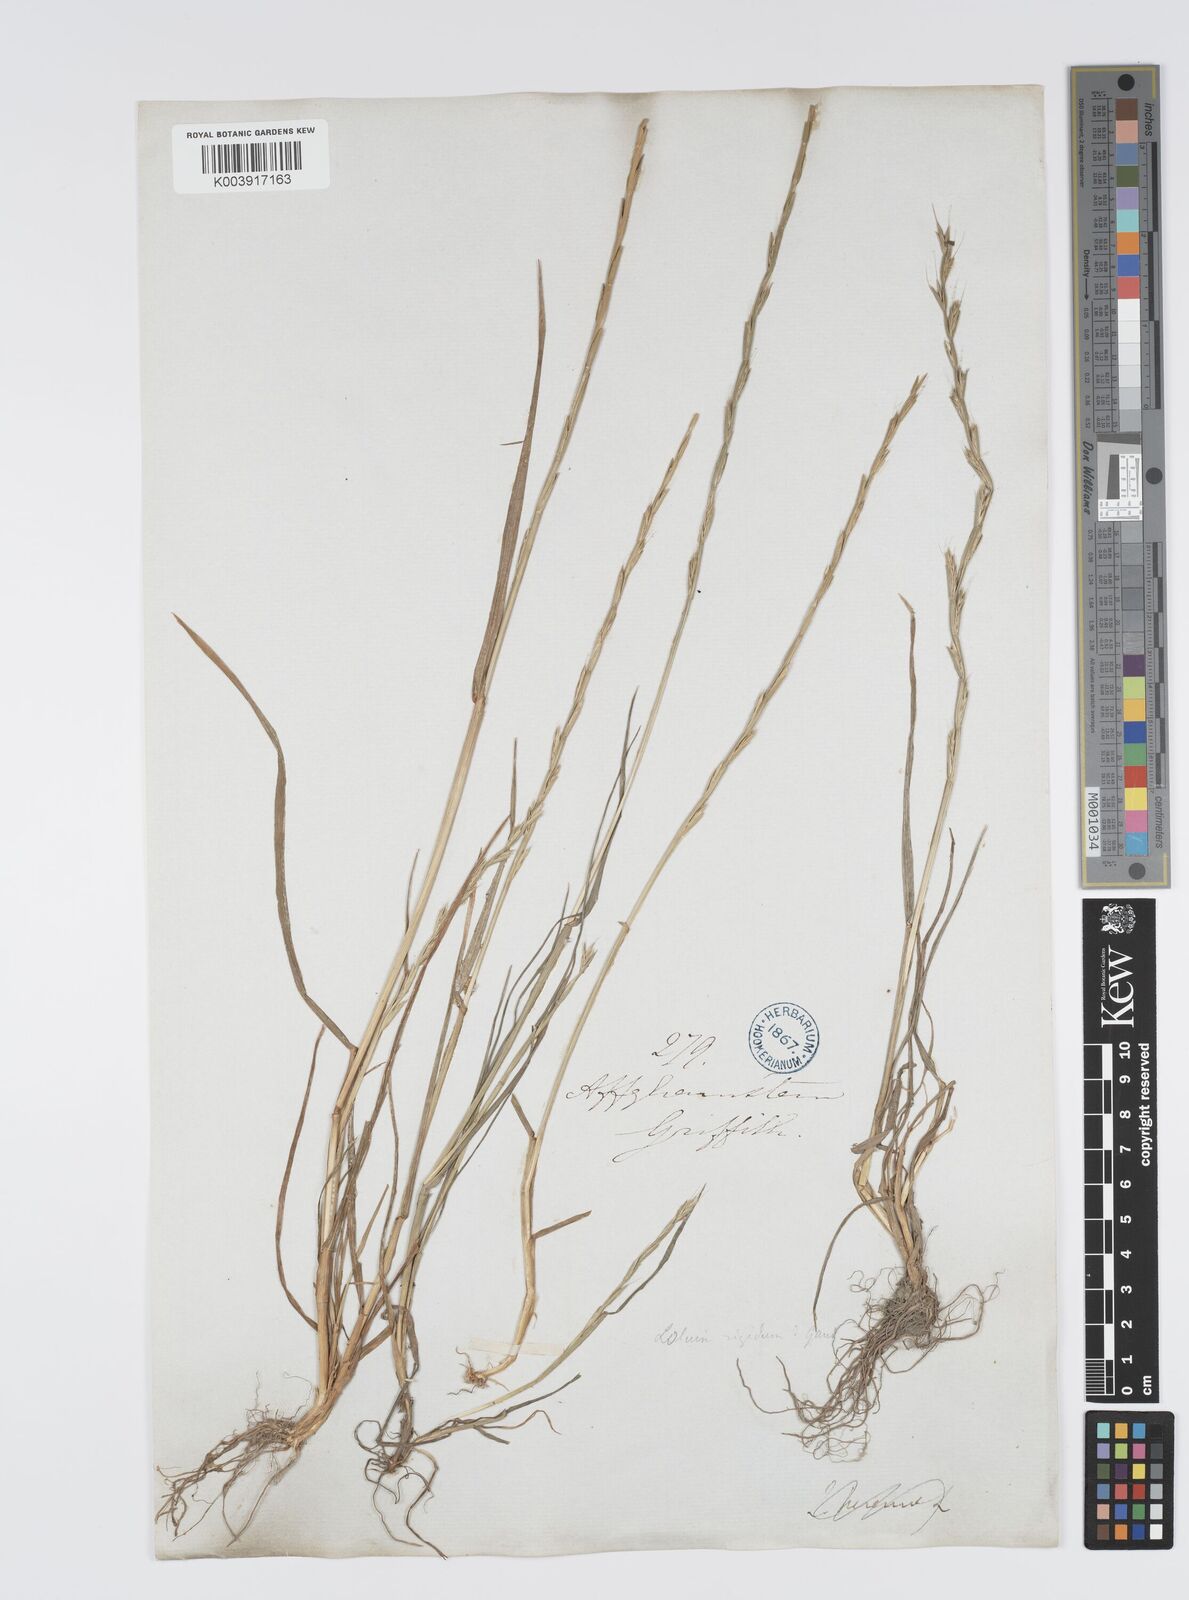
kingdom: Plantae
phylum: Tracheophyta
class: Liliopsida
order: Poales
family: Poaceae
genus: Lolium
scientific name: Lolium persicum
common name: Persian ryegrass
